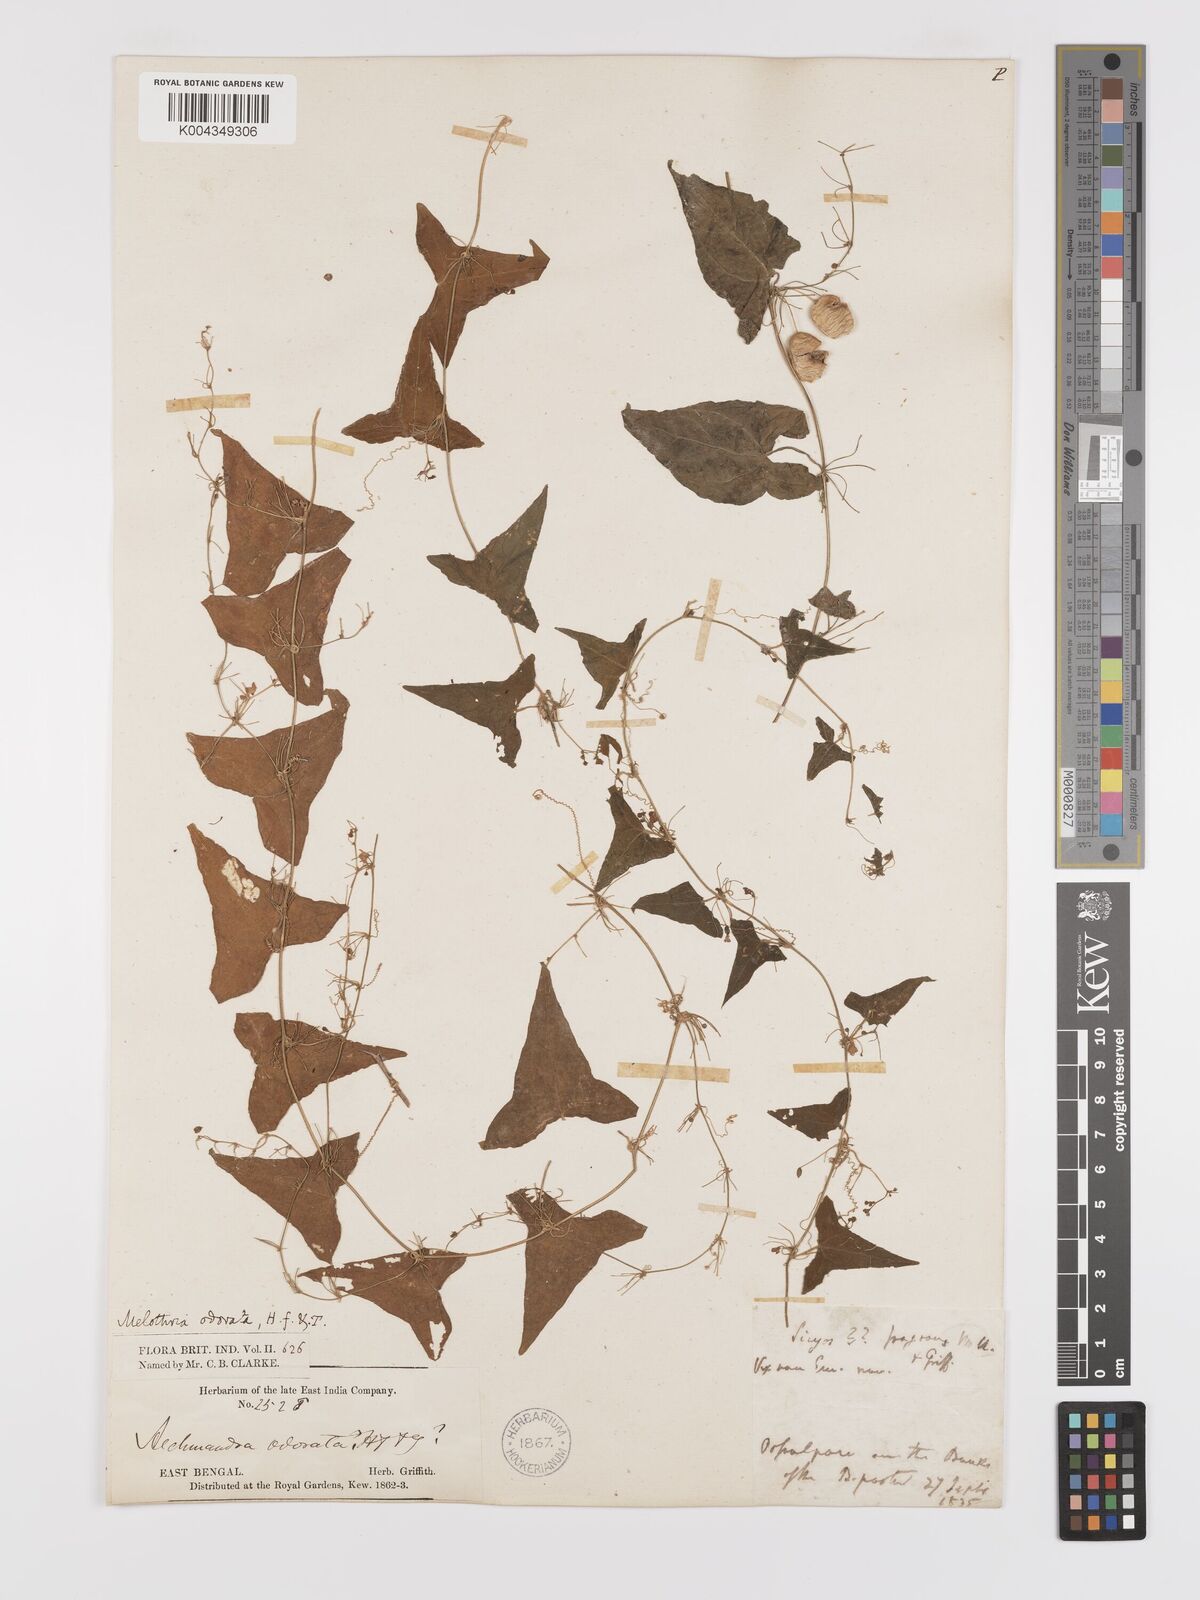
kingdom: Plantae
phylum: Tracheophyta
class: Magnoliopsida
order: Cucurbitales
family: Cucurbitaceae
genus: Zehneria
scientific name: Zehneria odorata
